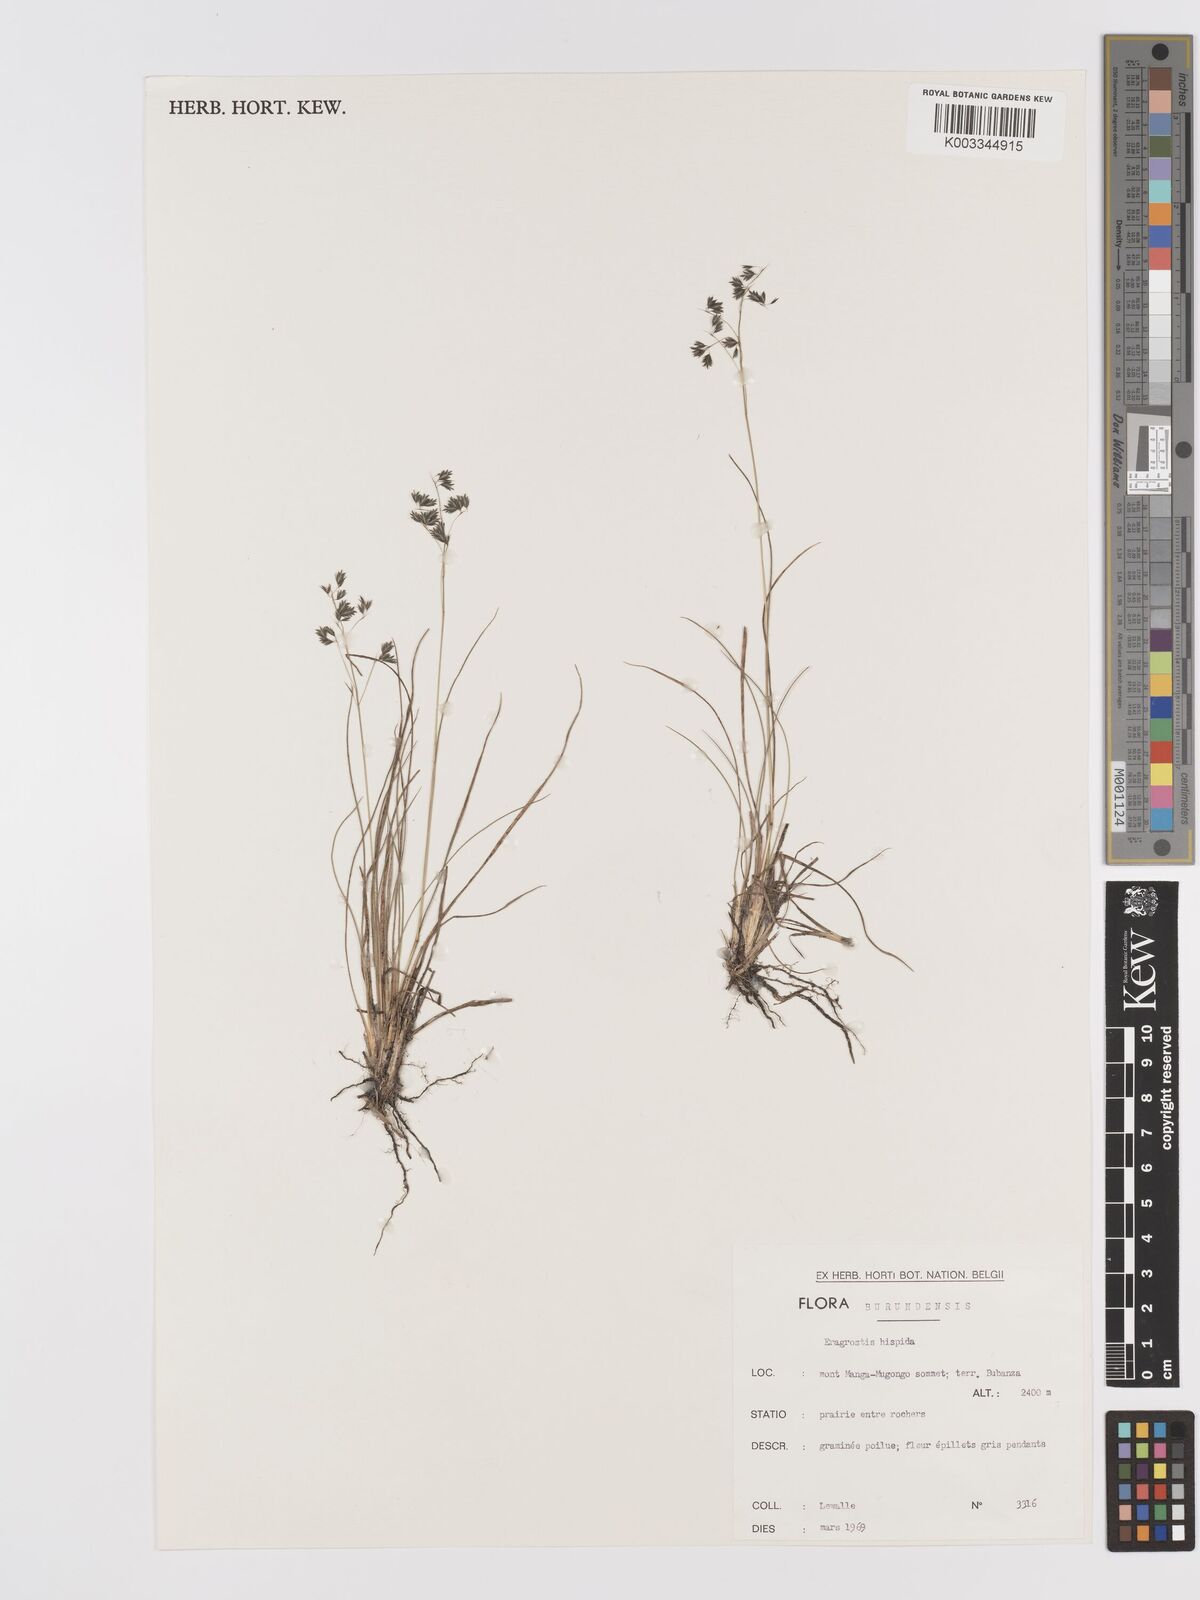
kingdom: Plantae
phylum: Tracheophyta
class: Liliopsida
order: Poales
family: Poaceae
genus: Eragrostis
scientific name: Eragrostis hispida
